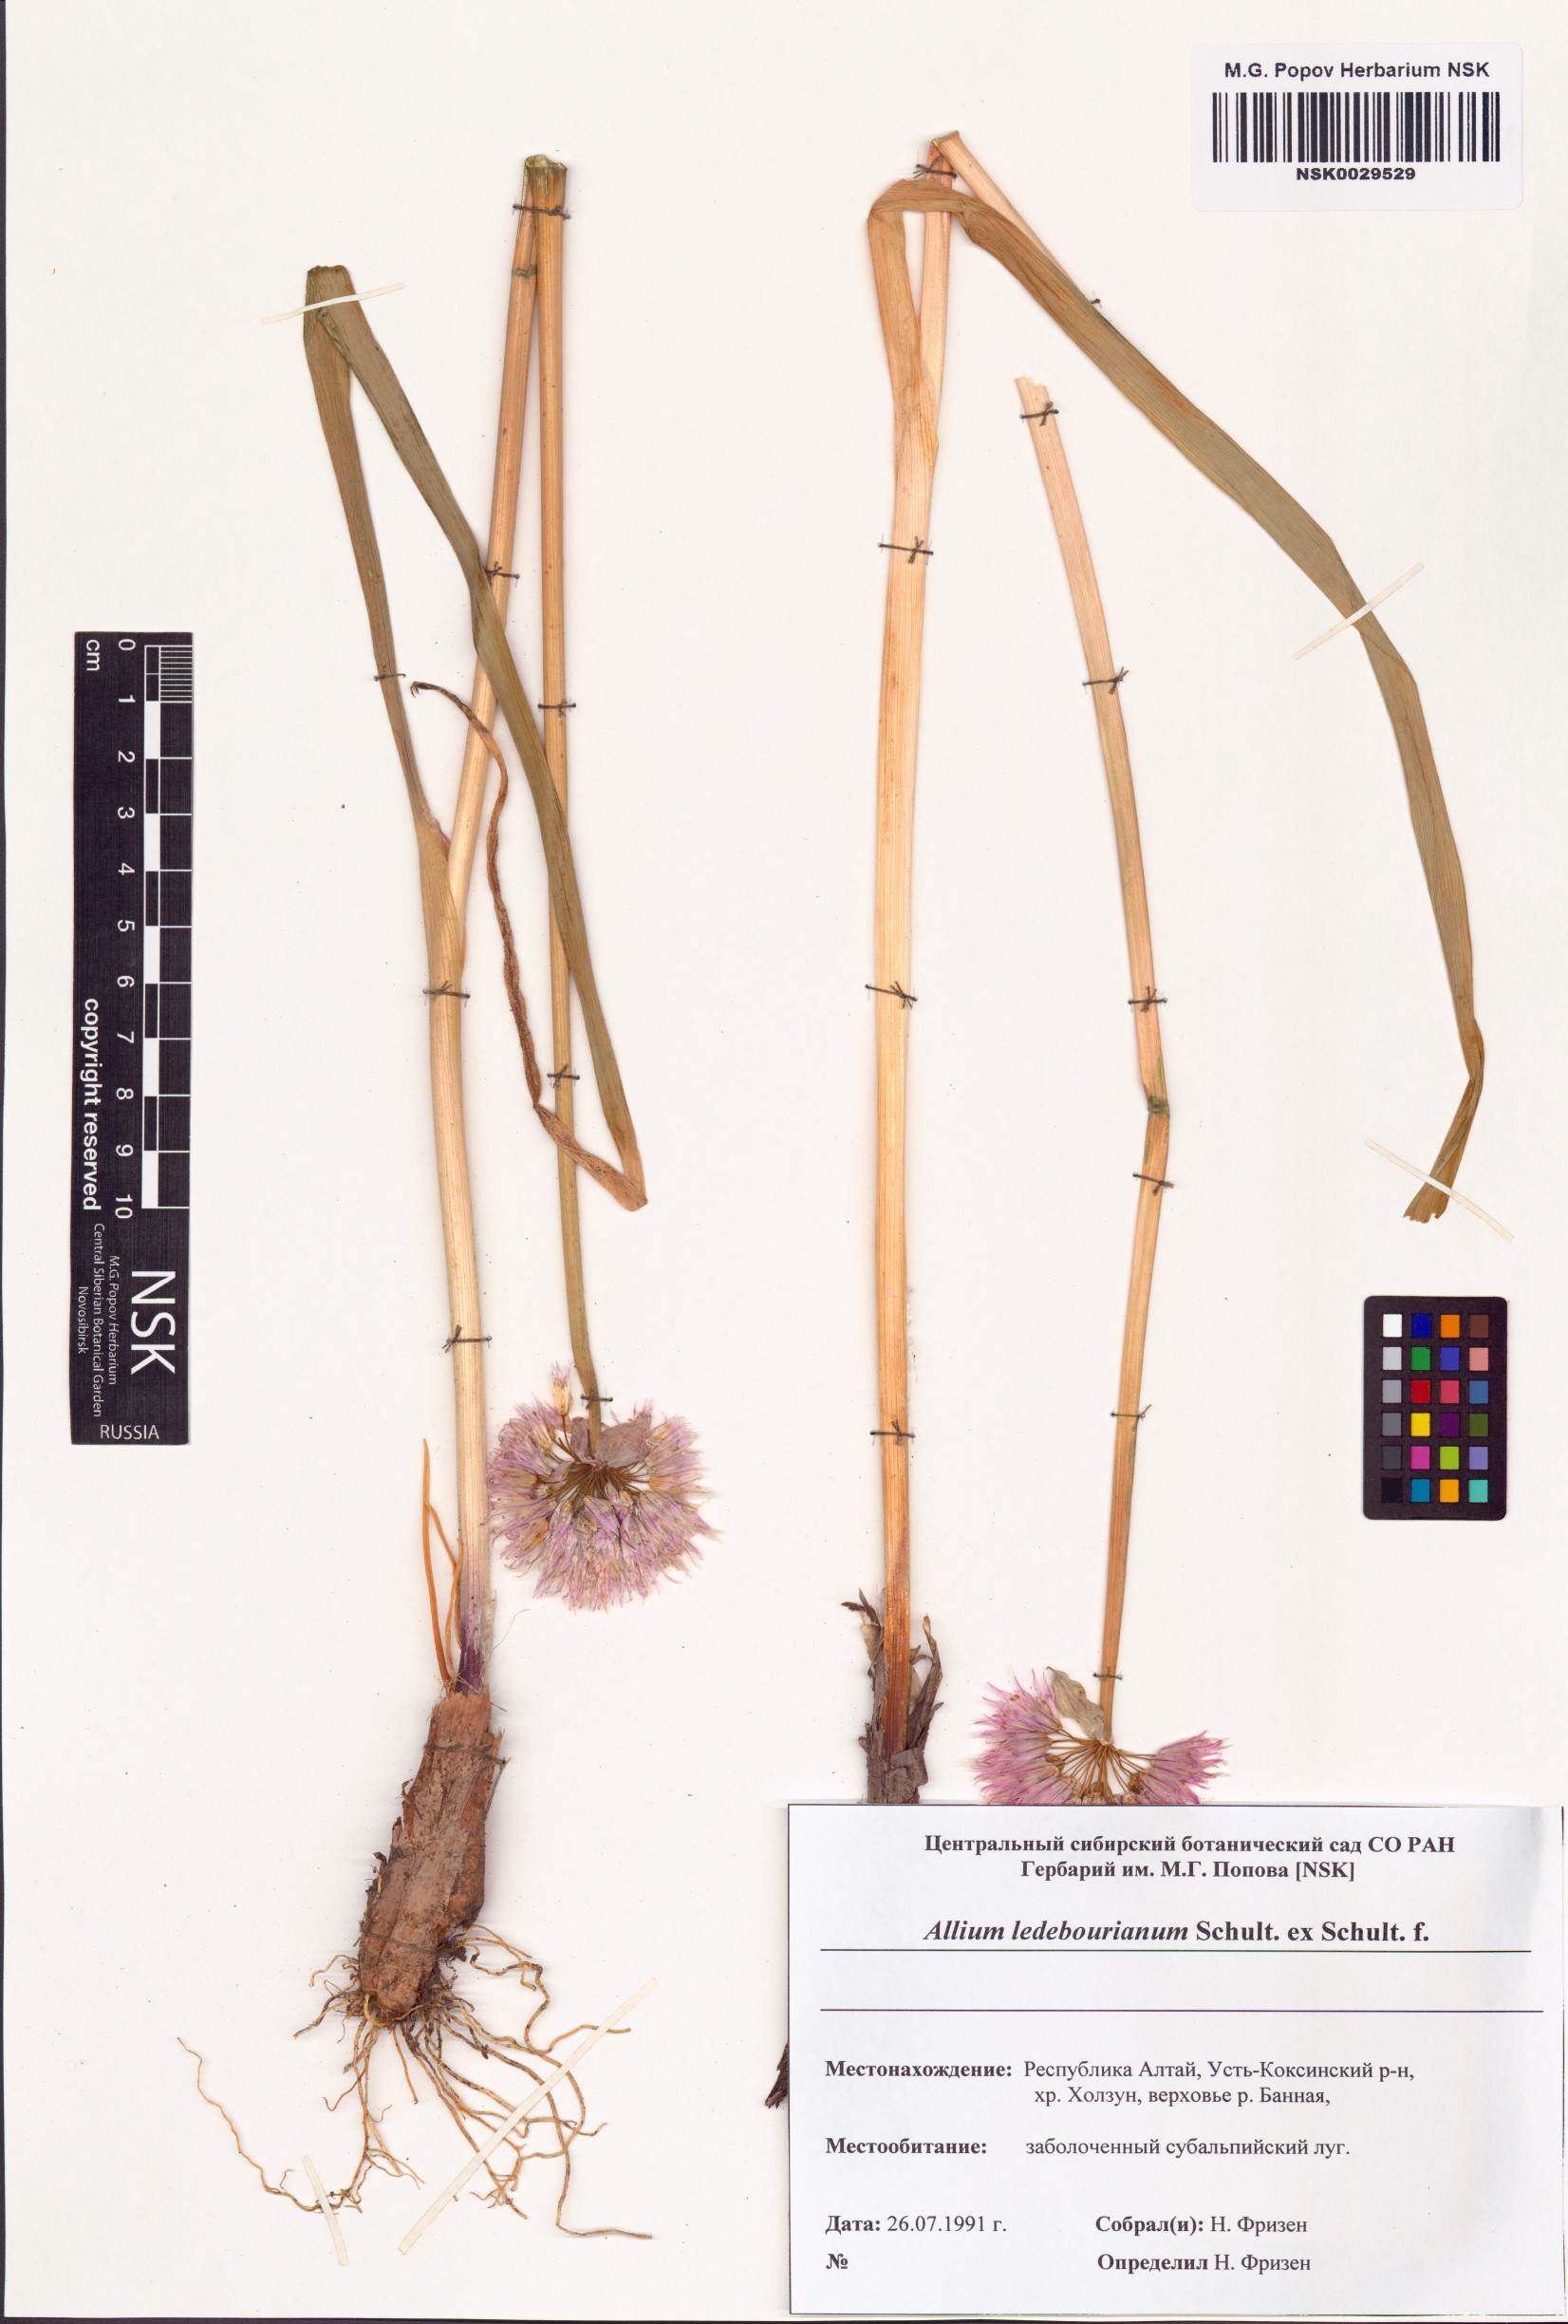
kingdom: Plantae
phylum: Tracheophyta
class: Liliopsida
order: Asparagales
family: Amaryllidaceae
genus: Allium
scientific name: Allium ledebourianum
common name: Ledebour chive
